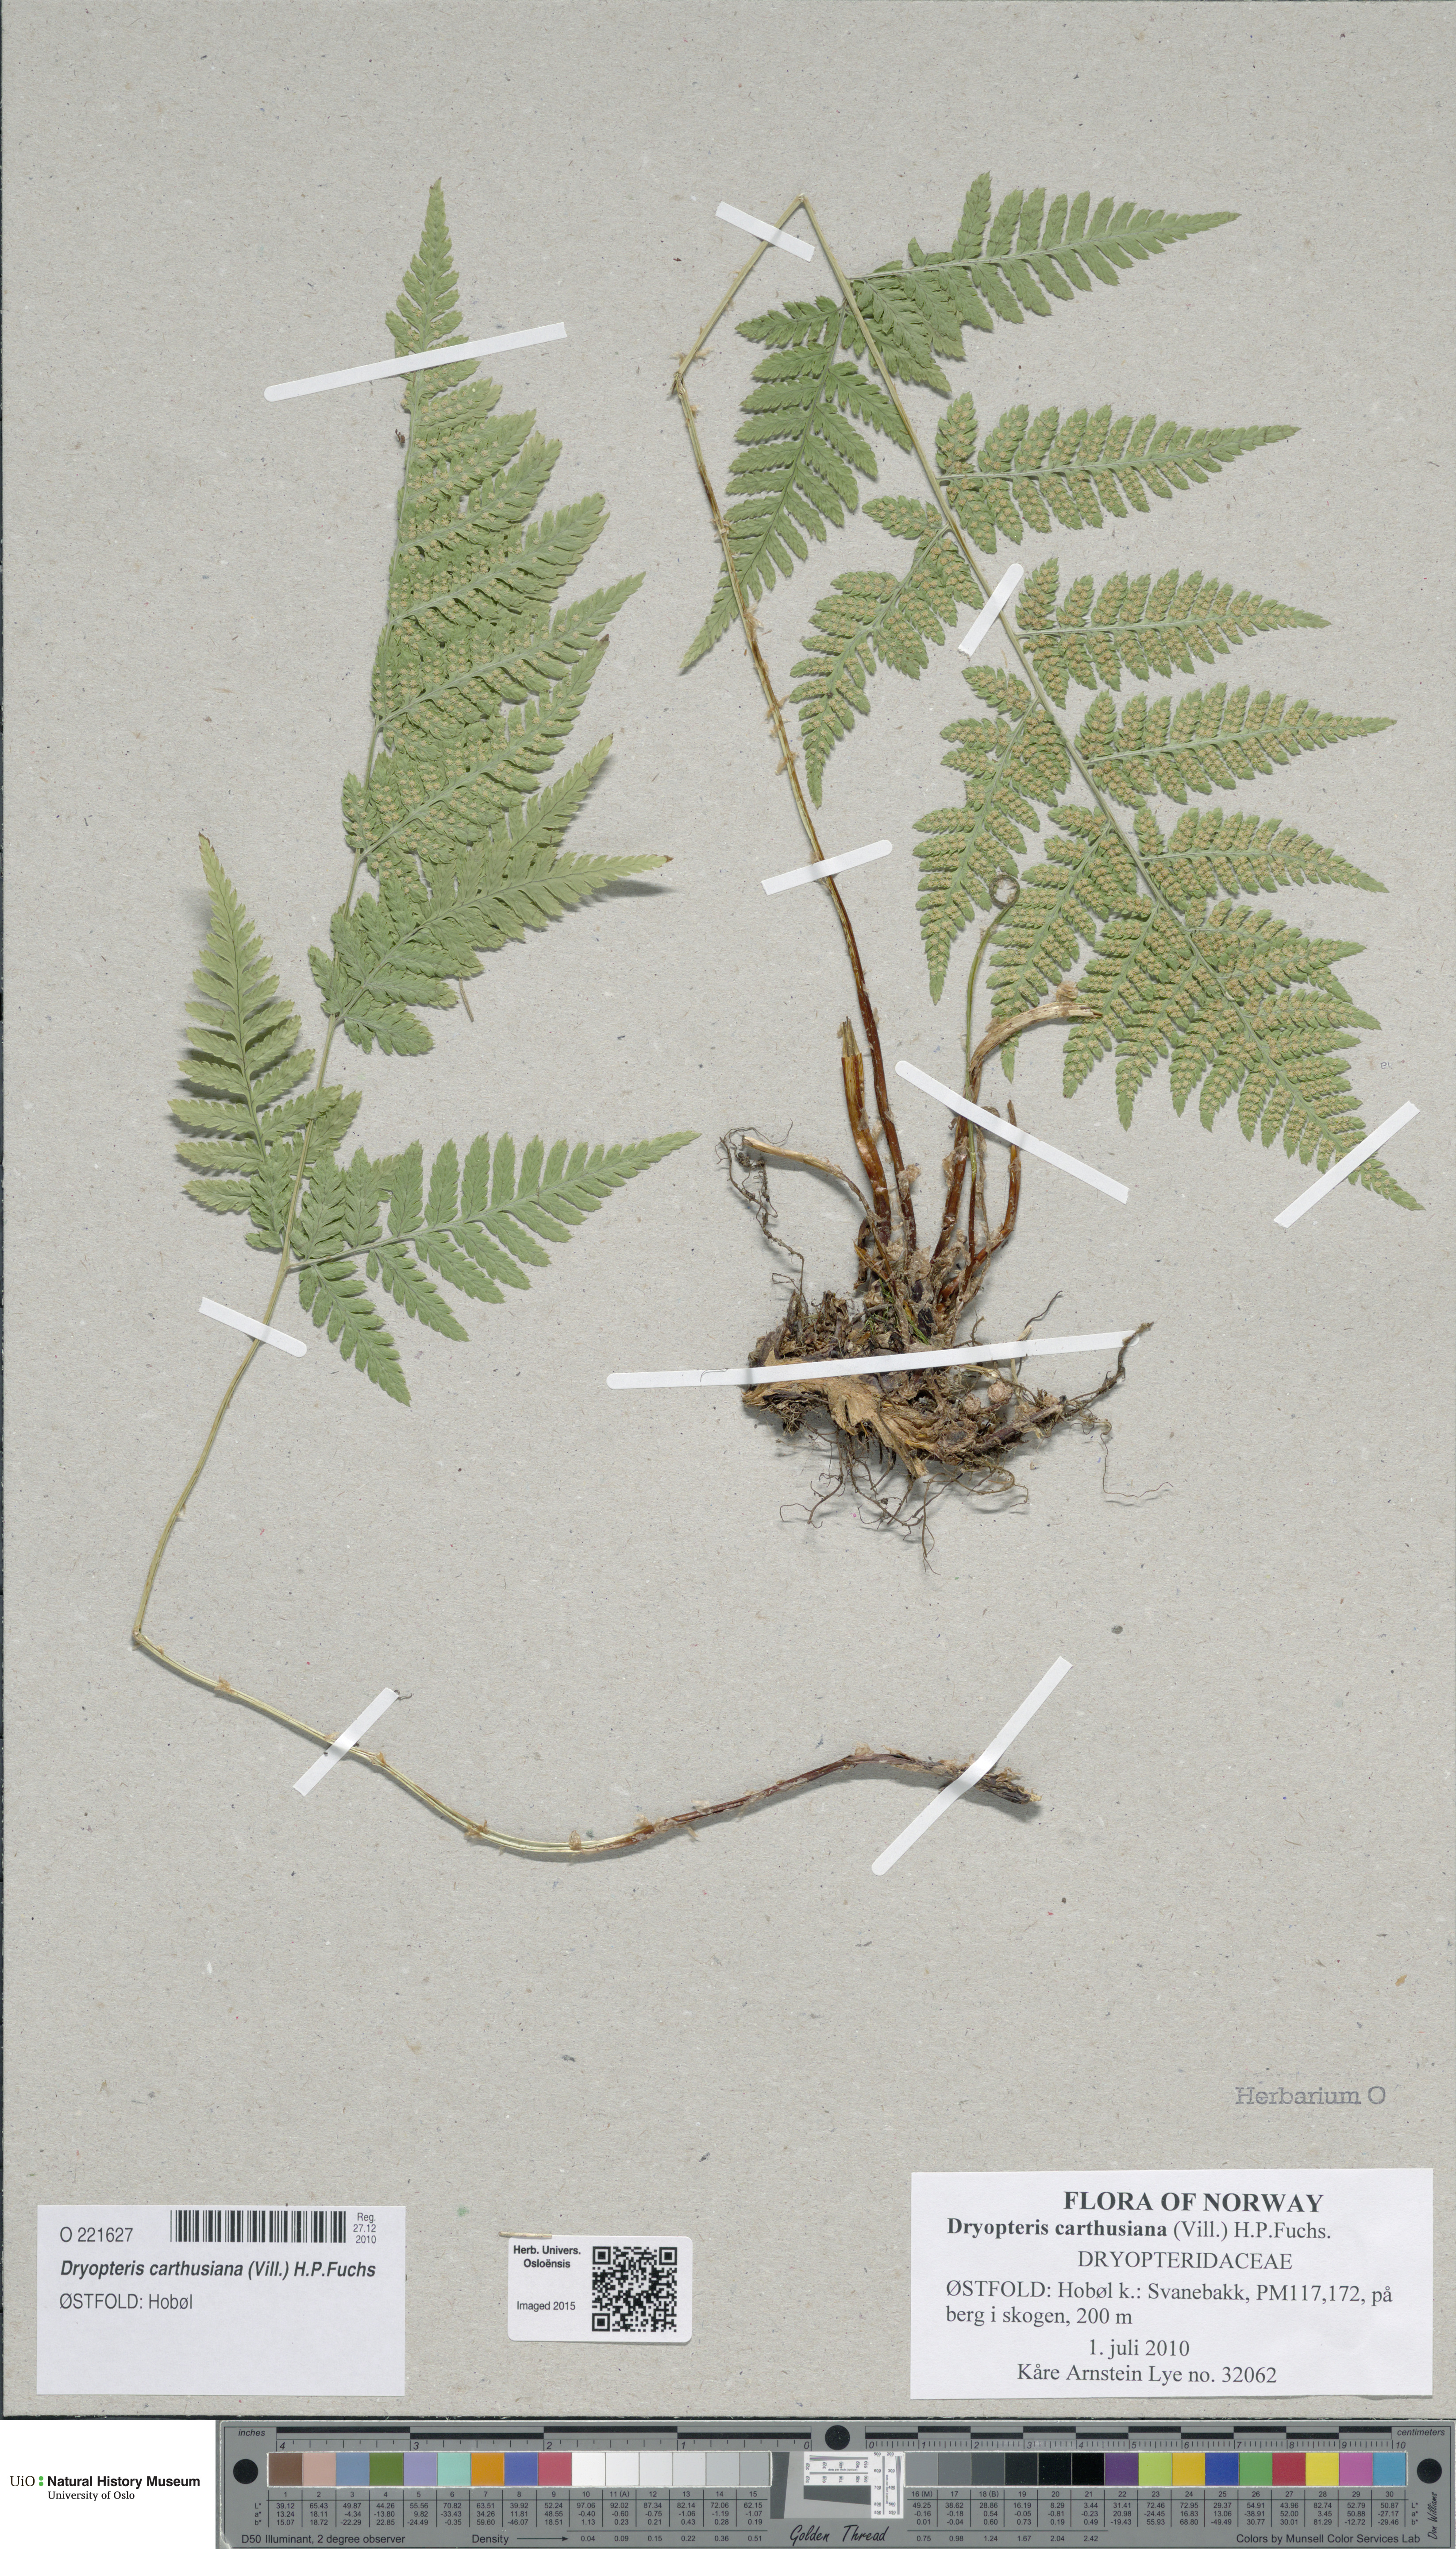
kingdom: Plantae
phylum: Tracheophyta
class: Polypodiopsida
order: Polypodiales
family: Dryopteridaceae
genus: Dryopteris
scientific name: Dryopteris carthusiana
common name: Narrow buckler-fern
